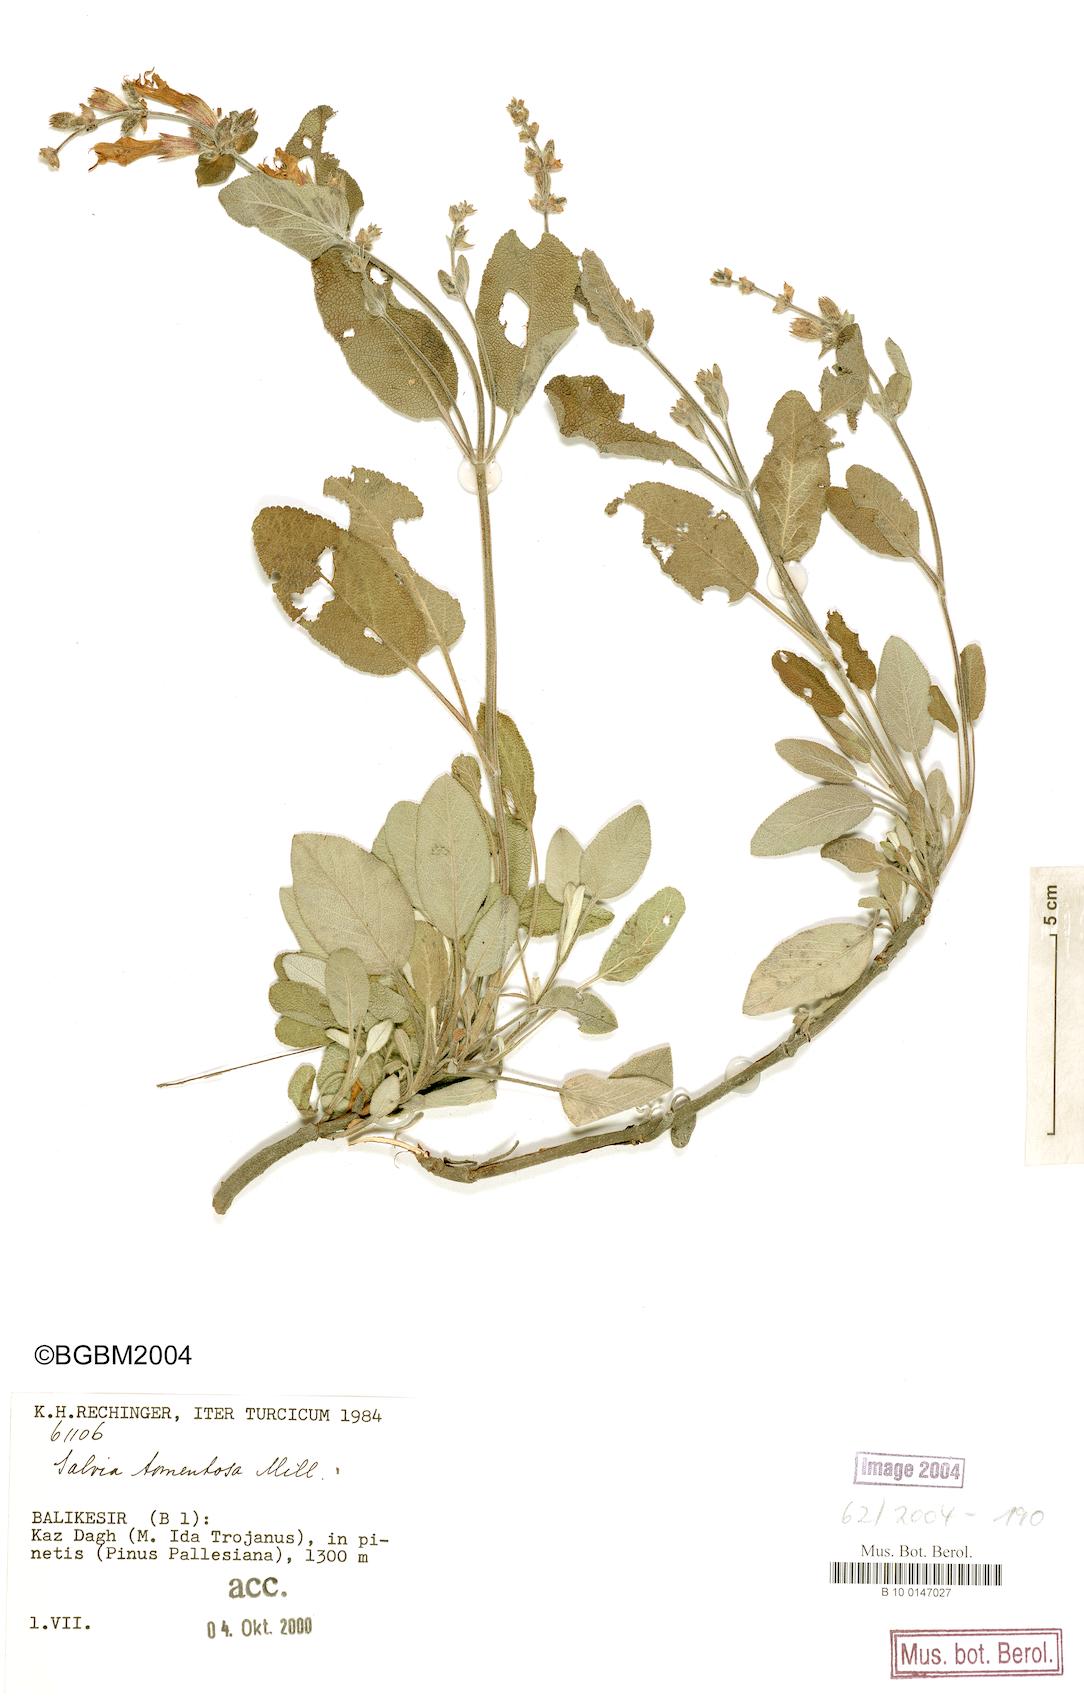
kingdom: Plantae
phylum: Tracheophyta
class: Magnoliopsida
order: Lamiales
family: Lamiaceae
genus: Salvia
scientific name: Salvia tomentosa
